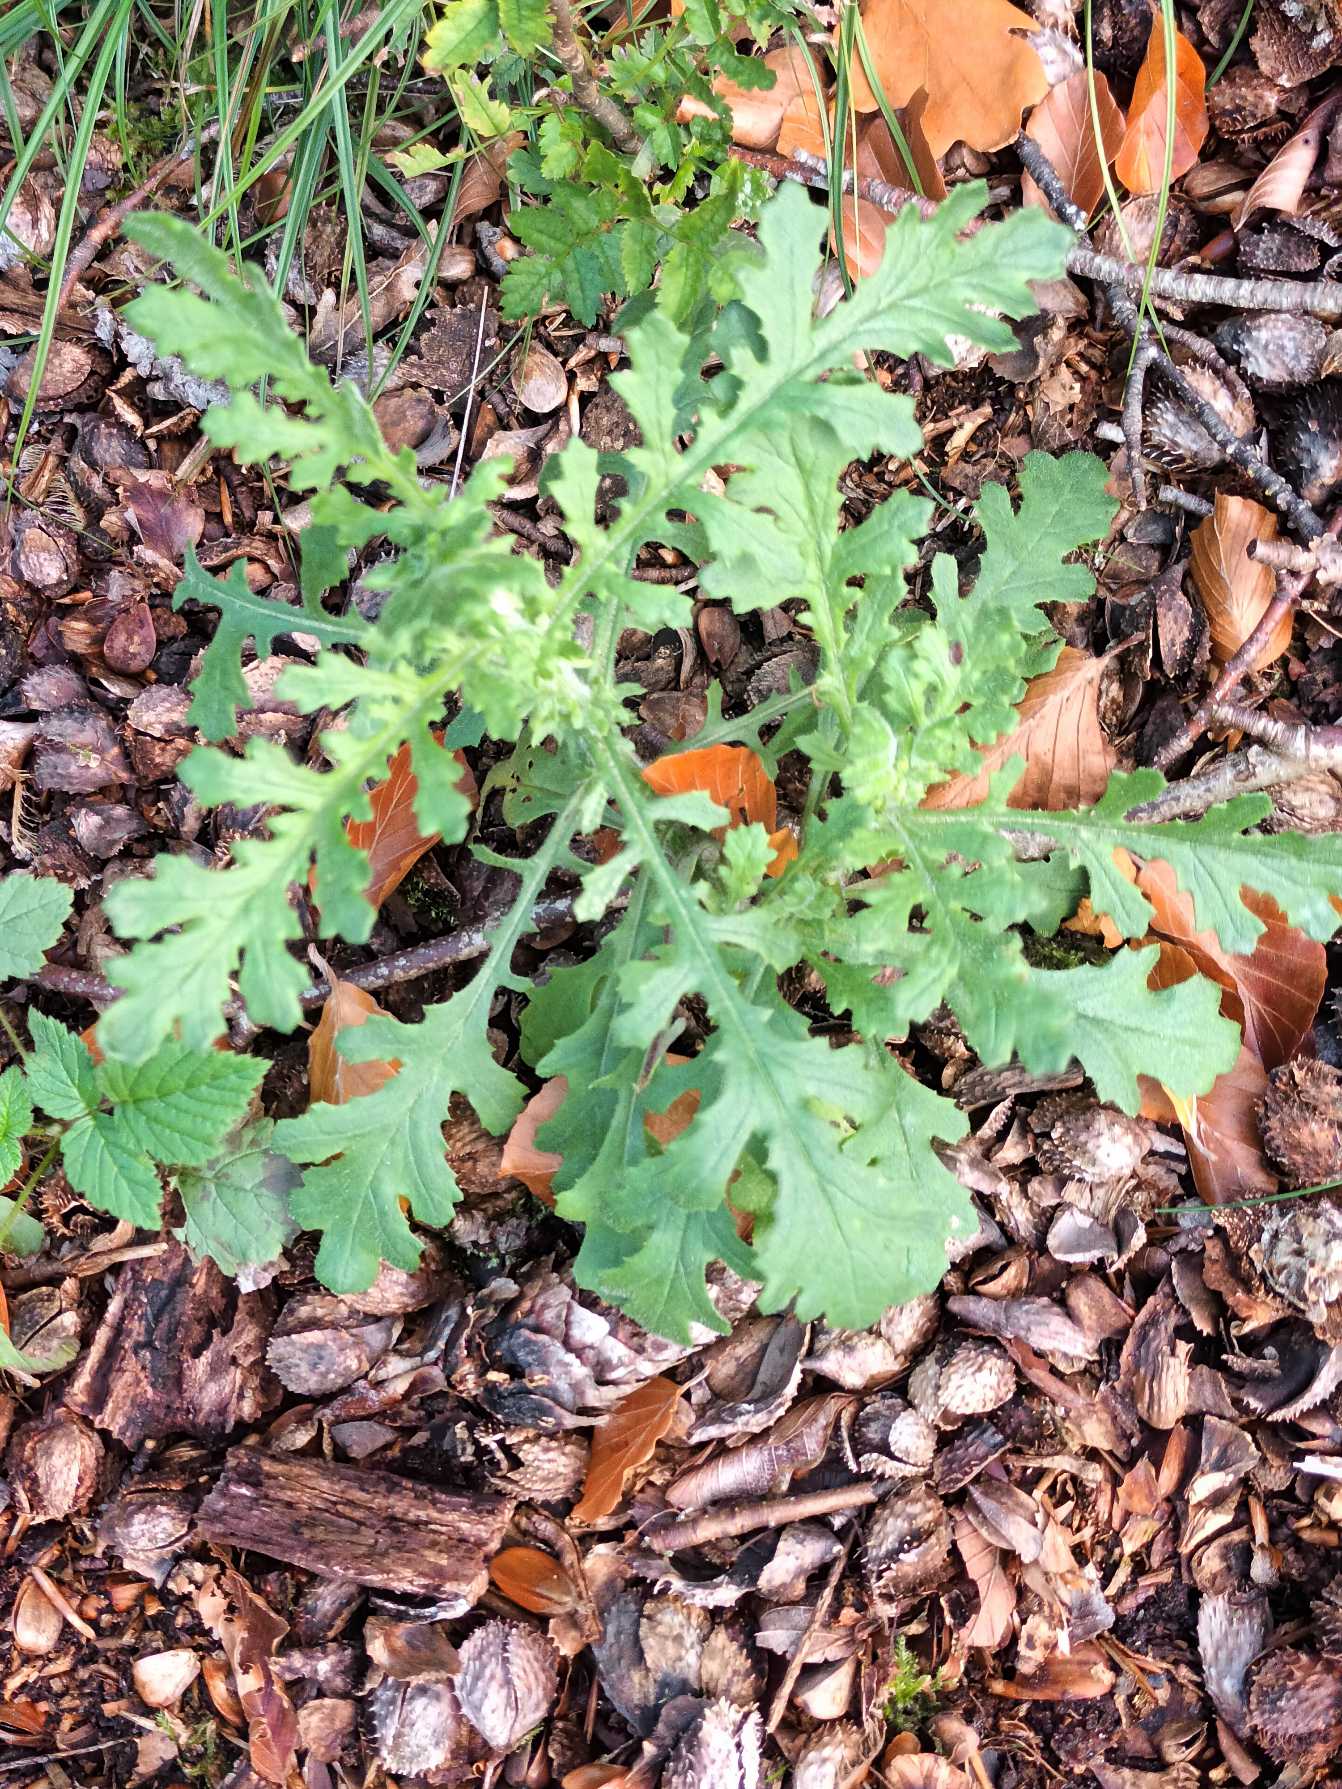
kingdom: Plantae
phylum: Tracheophyta
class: Magnoliopsida
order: Asterales
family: Asteraceae
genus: Senecio
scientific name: Senecio sylvaticus
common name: Skov-brandbæger
